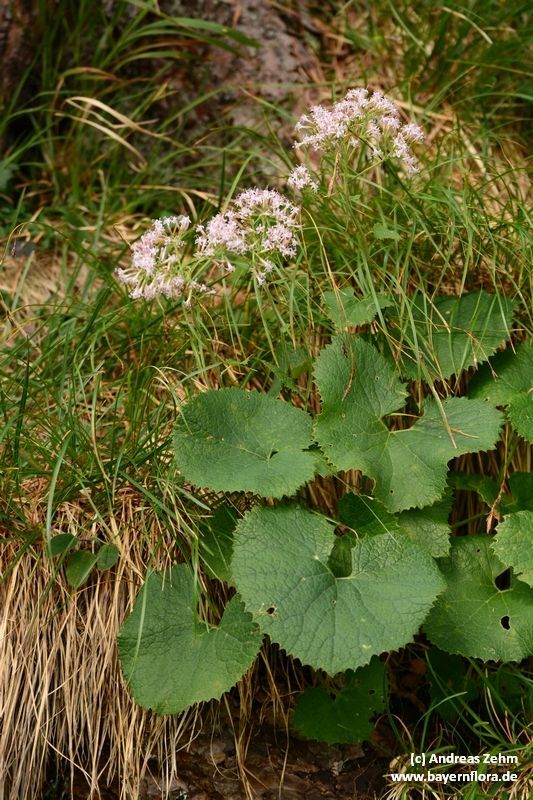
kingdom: Plantae
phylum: Tracheophyta
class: Magnoliopsida
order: Asterales
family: Asteraceae
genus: Adenostyles
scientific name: Adenostyles alpina
